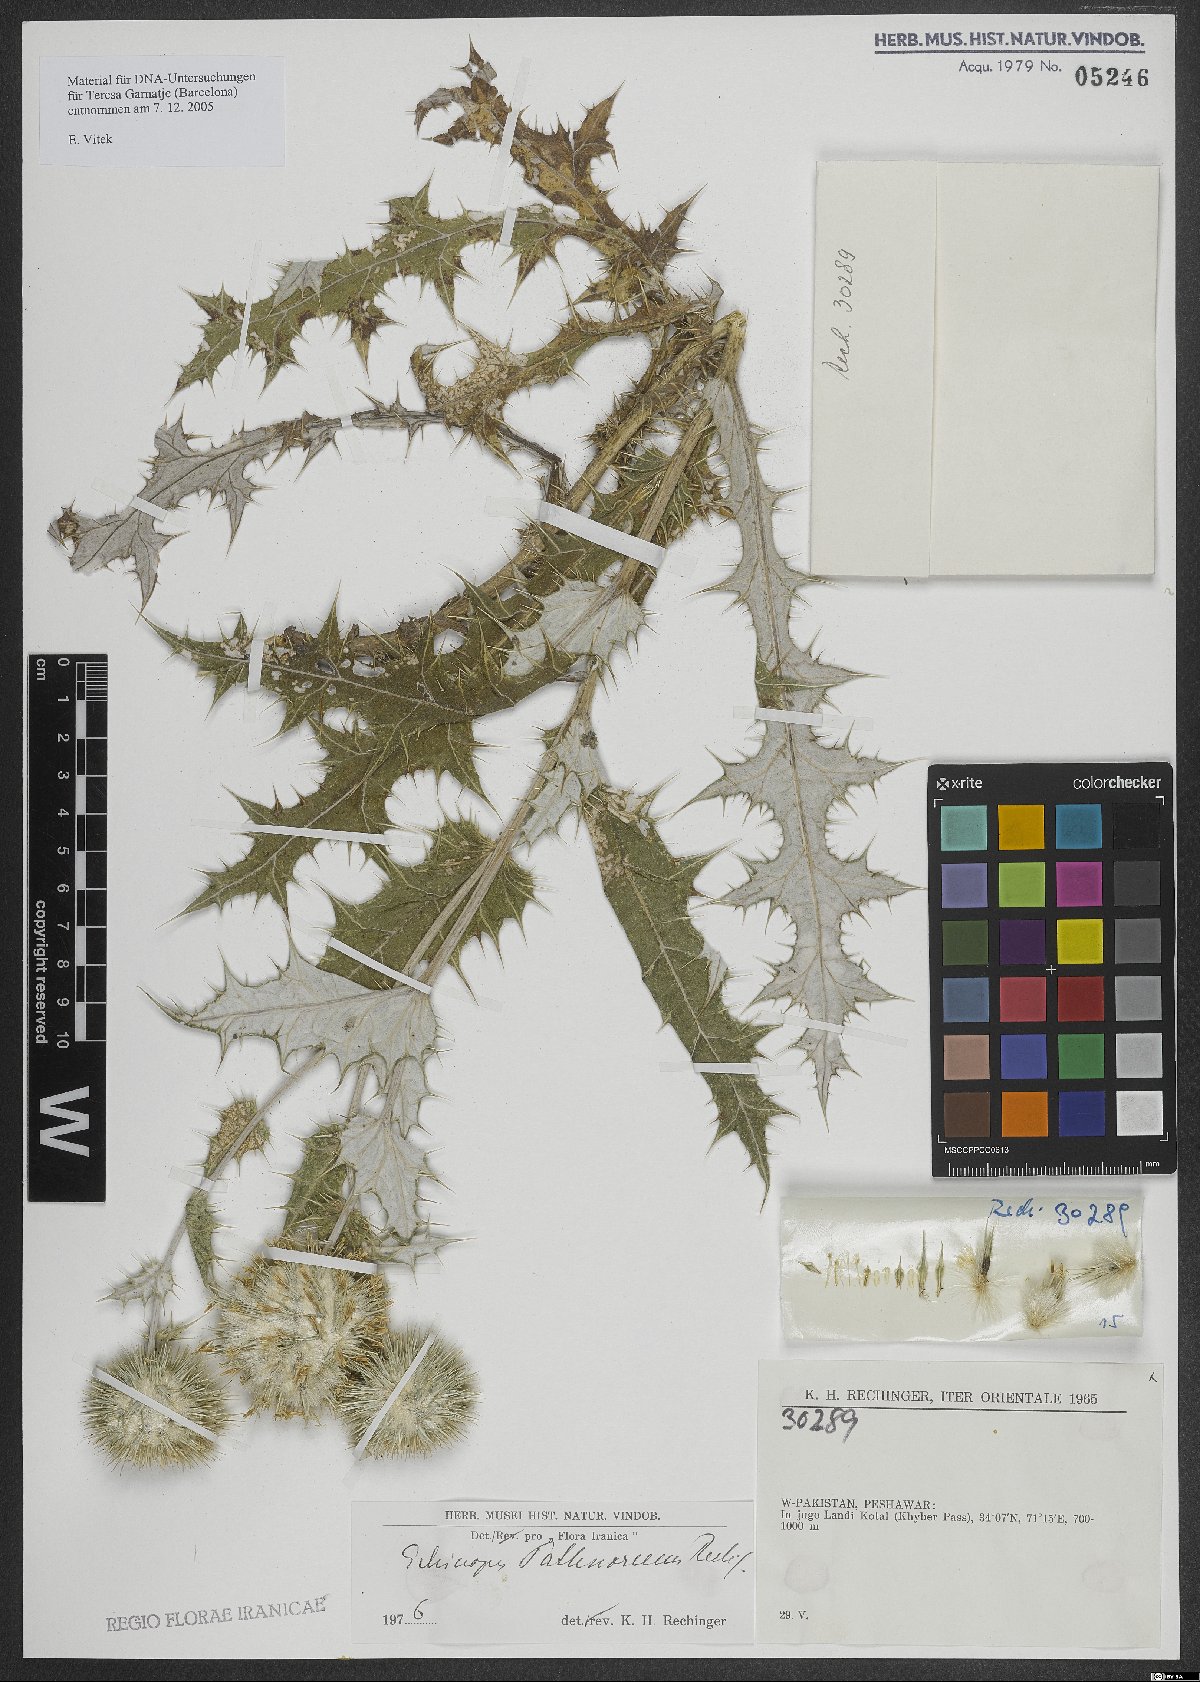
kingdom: Plantae
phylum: Tracheophyta
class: Magnoliopsida
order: Asterales
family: Asteraceae
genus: Echinops
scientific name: Echinops pathanorum
